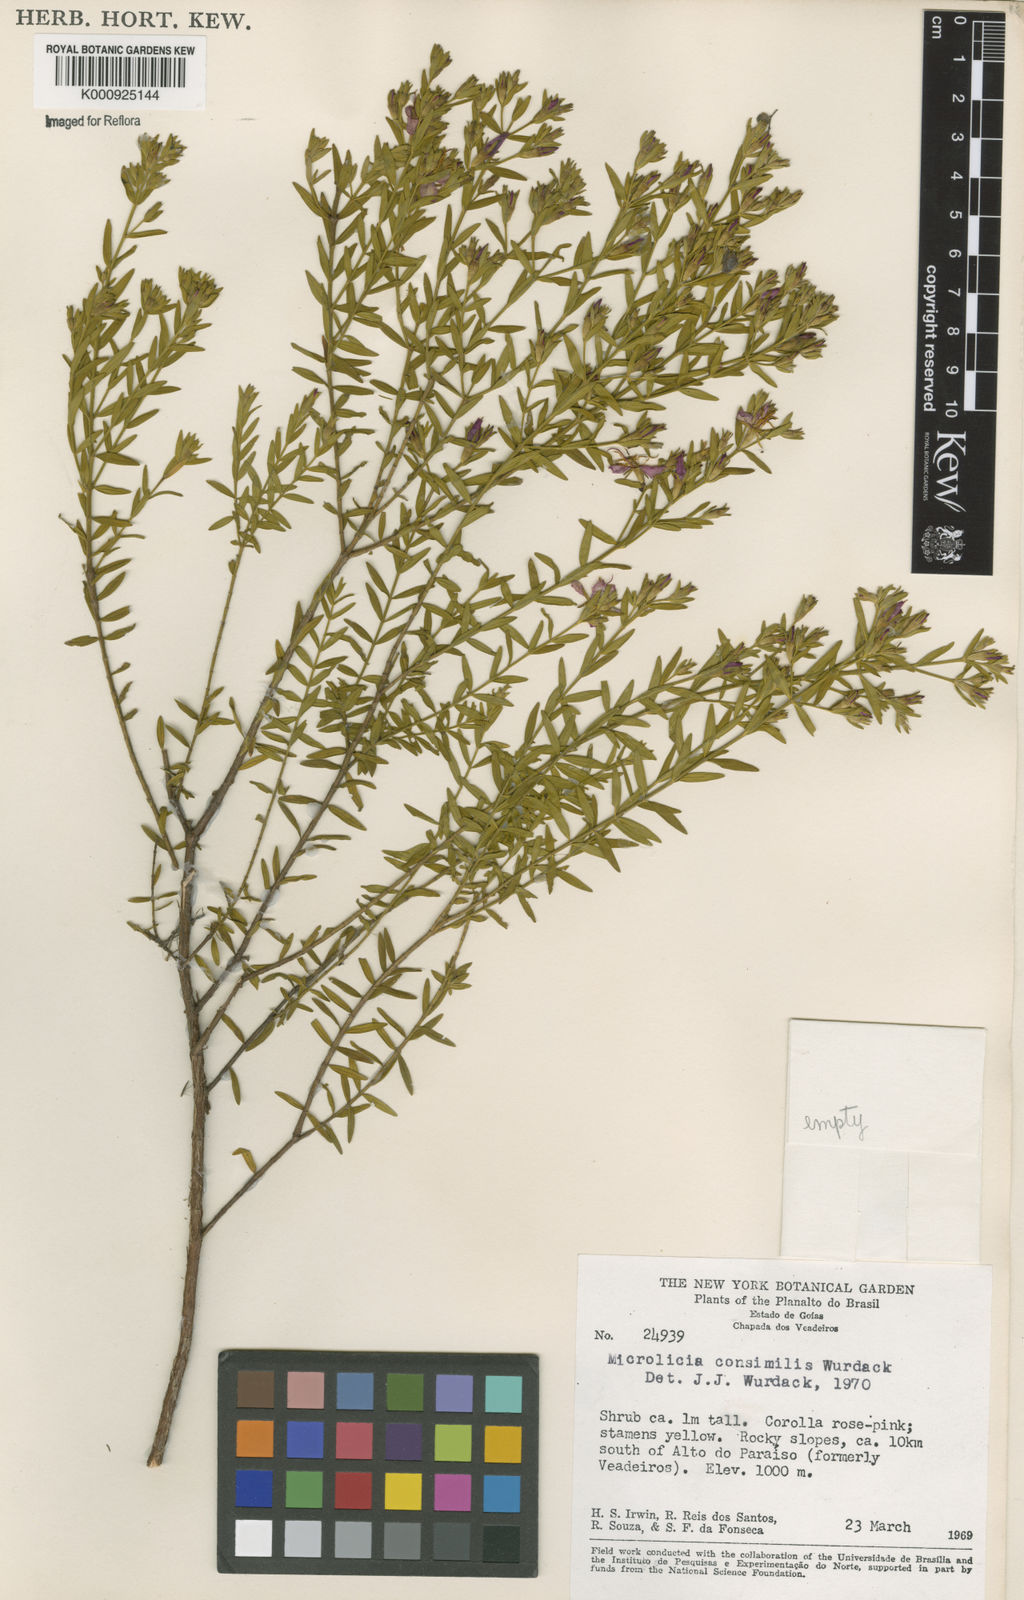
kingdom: Plantae
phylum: Tracheophyta
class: Magnoliopsida
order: Myrtales
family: Melastomataceae
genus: Microlicia
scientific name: Microlicia consimilis
